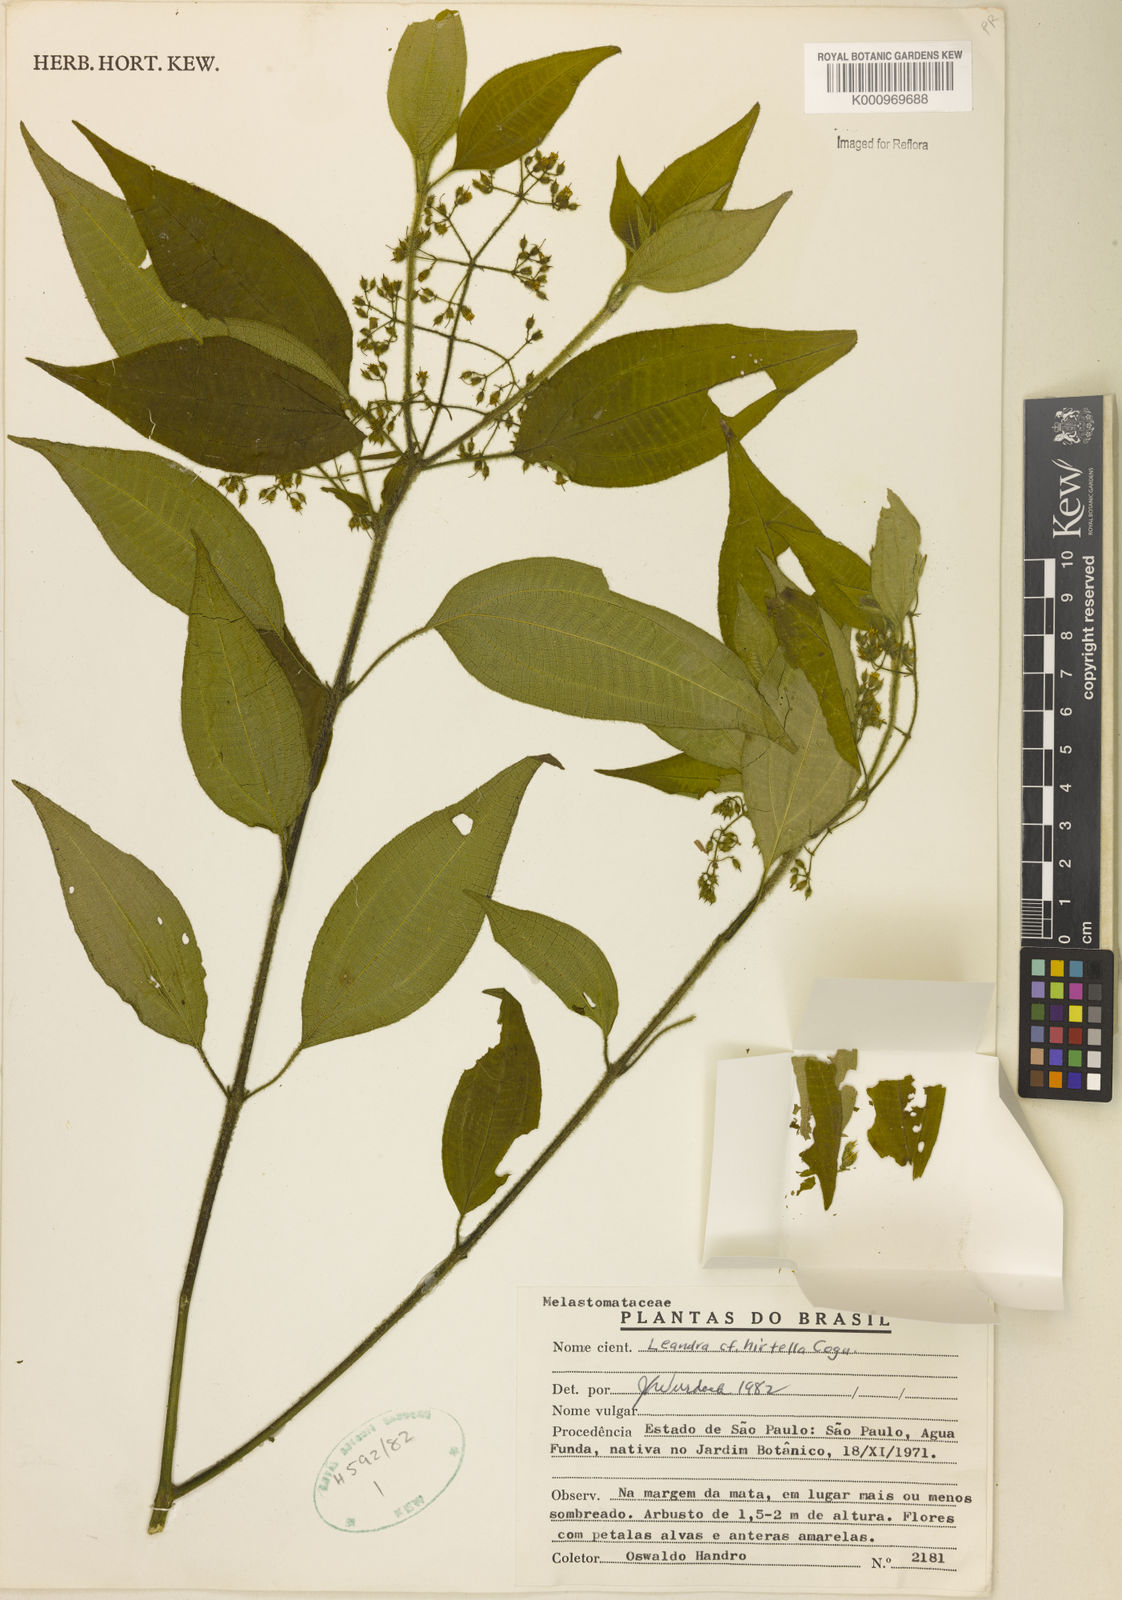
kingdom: Plantae
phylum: Tracheophyta
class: Magnoliopsida
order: Myrtales
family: Melastomataceae
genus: Miconia
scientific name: Miconia leahirtella
